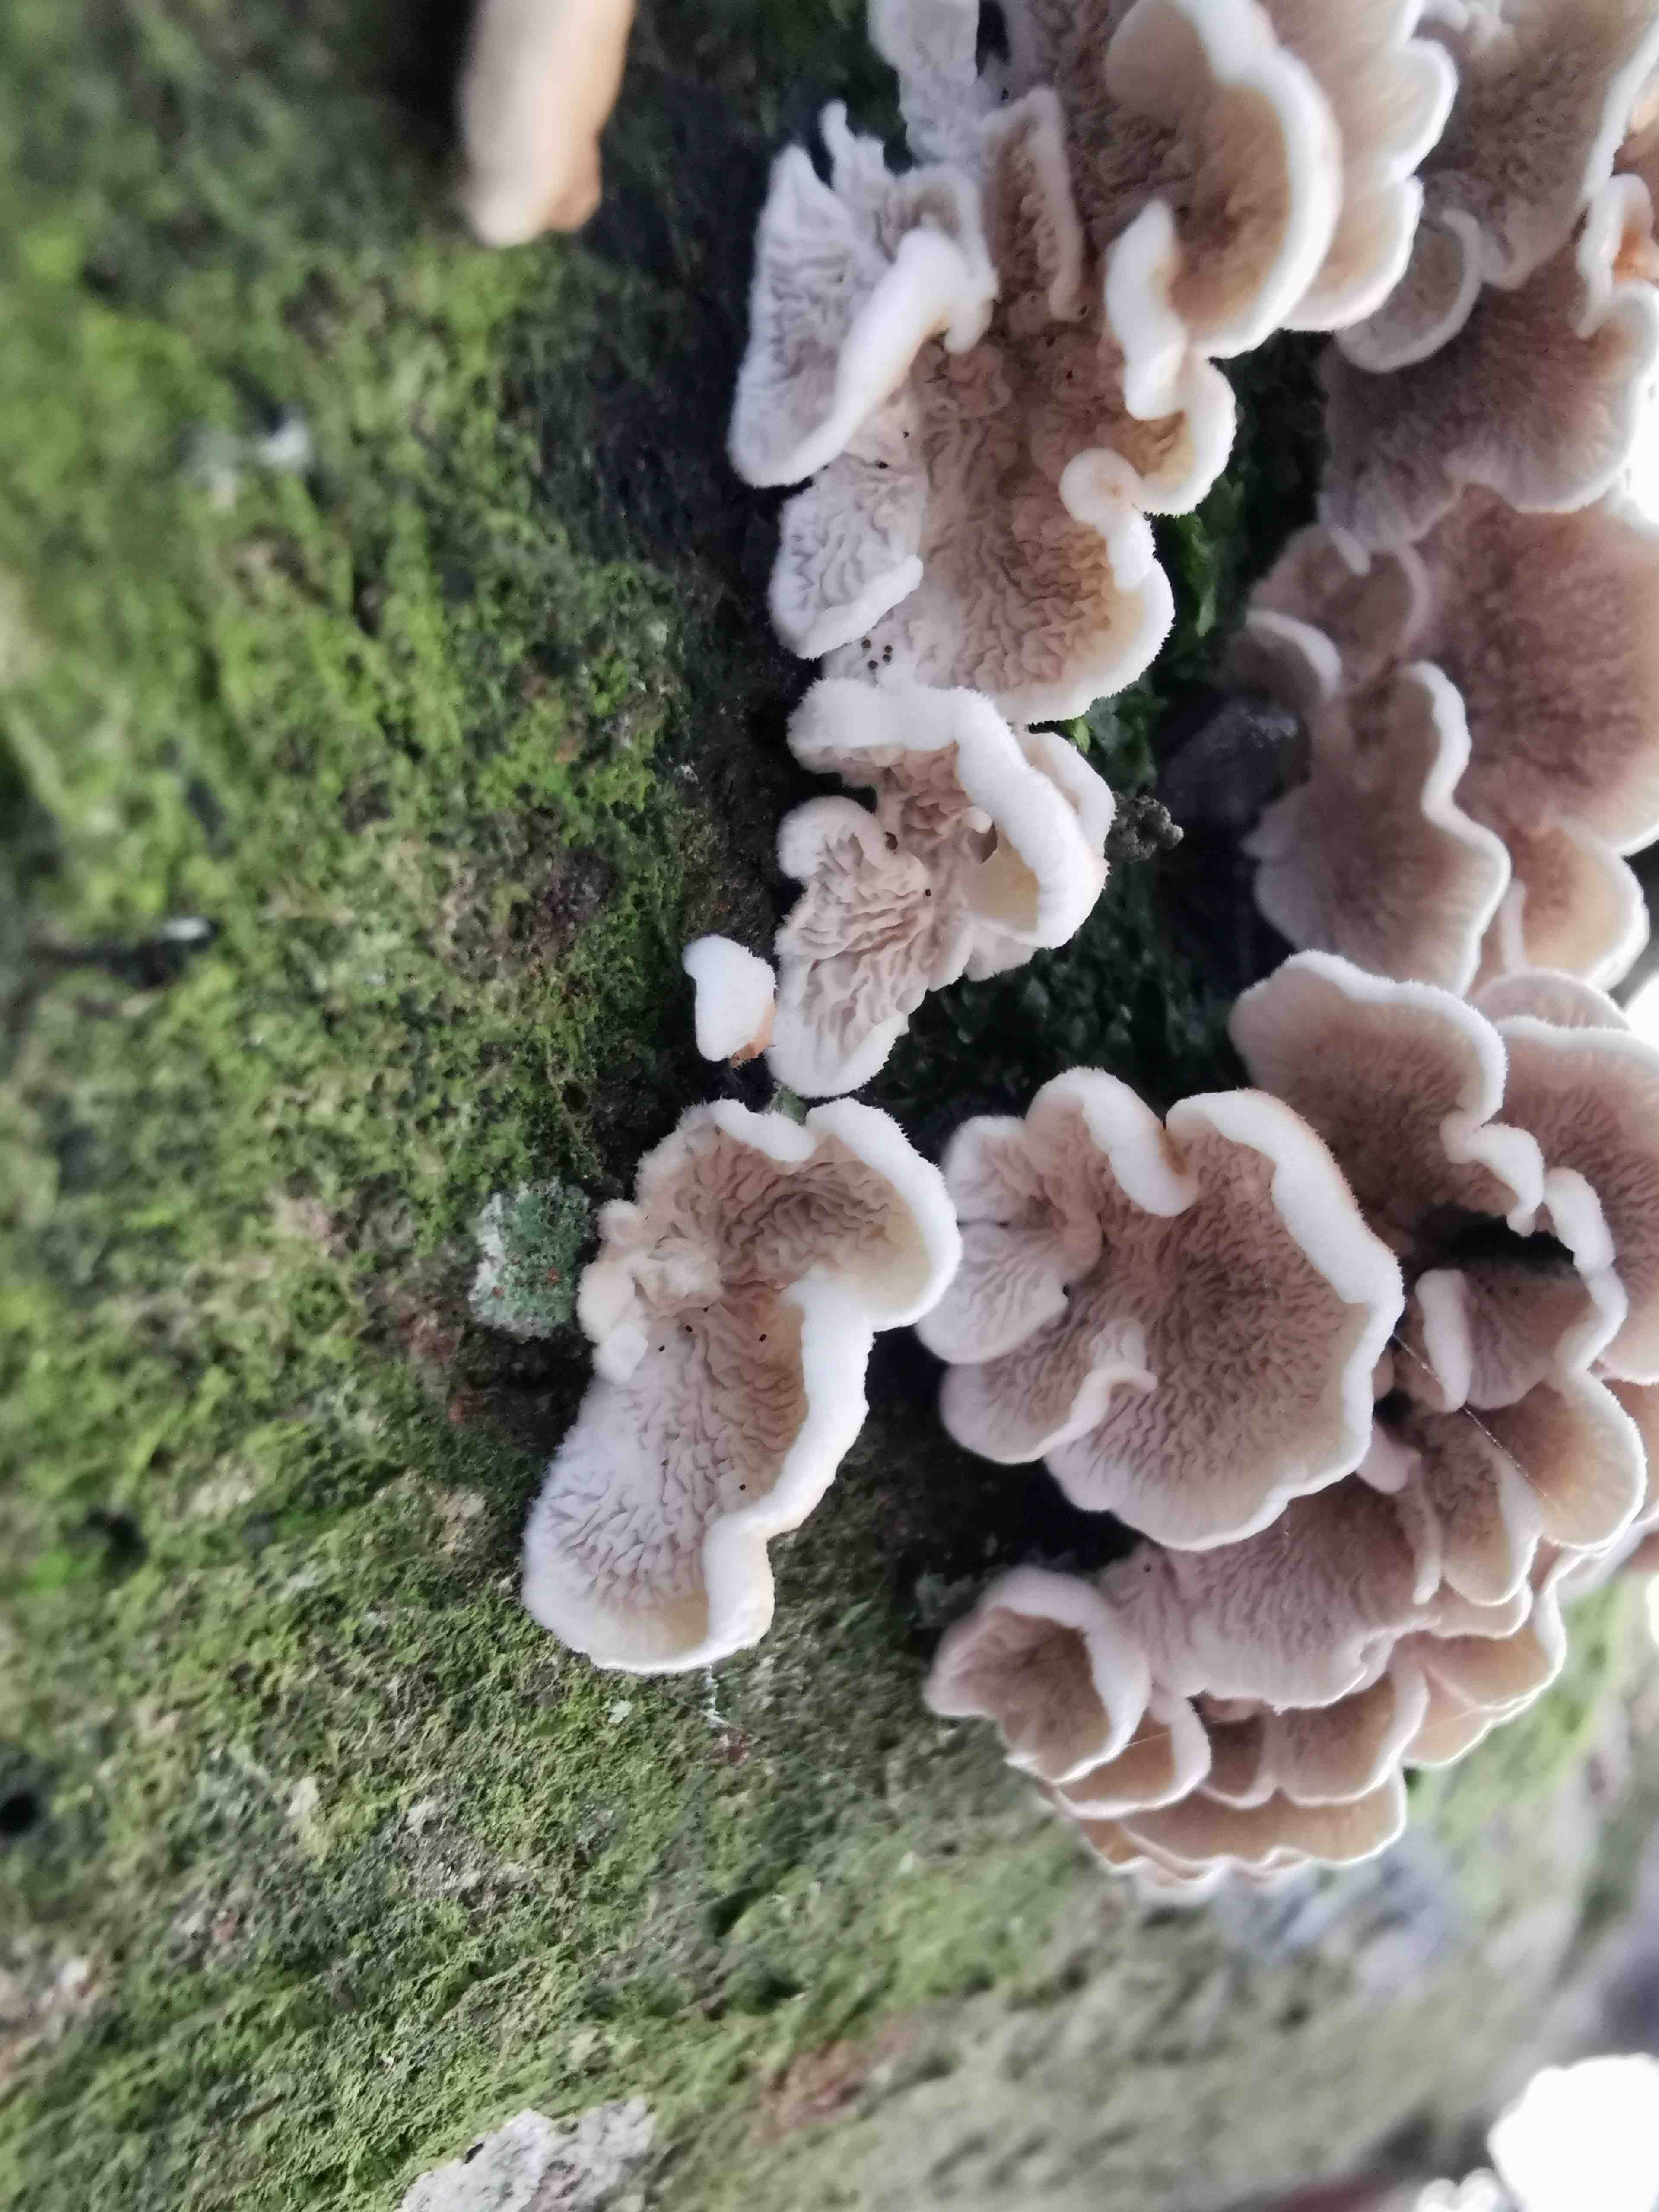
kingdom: Fungi
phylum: Basidiomycota
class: Agaricomycetes
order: Amylocorticiales
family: Amylocorticiaceae
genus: Plicaturopsis
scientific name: Plicaturopsis crispa
